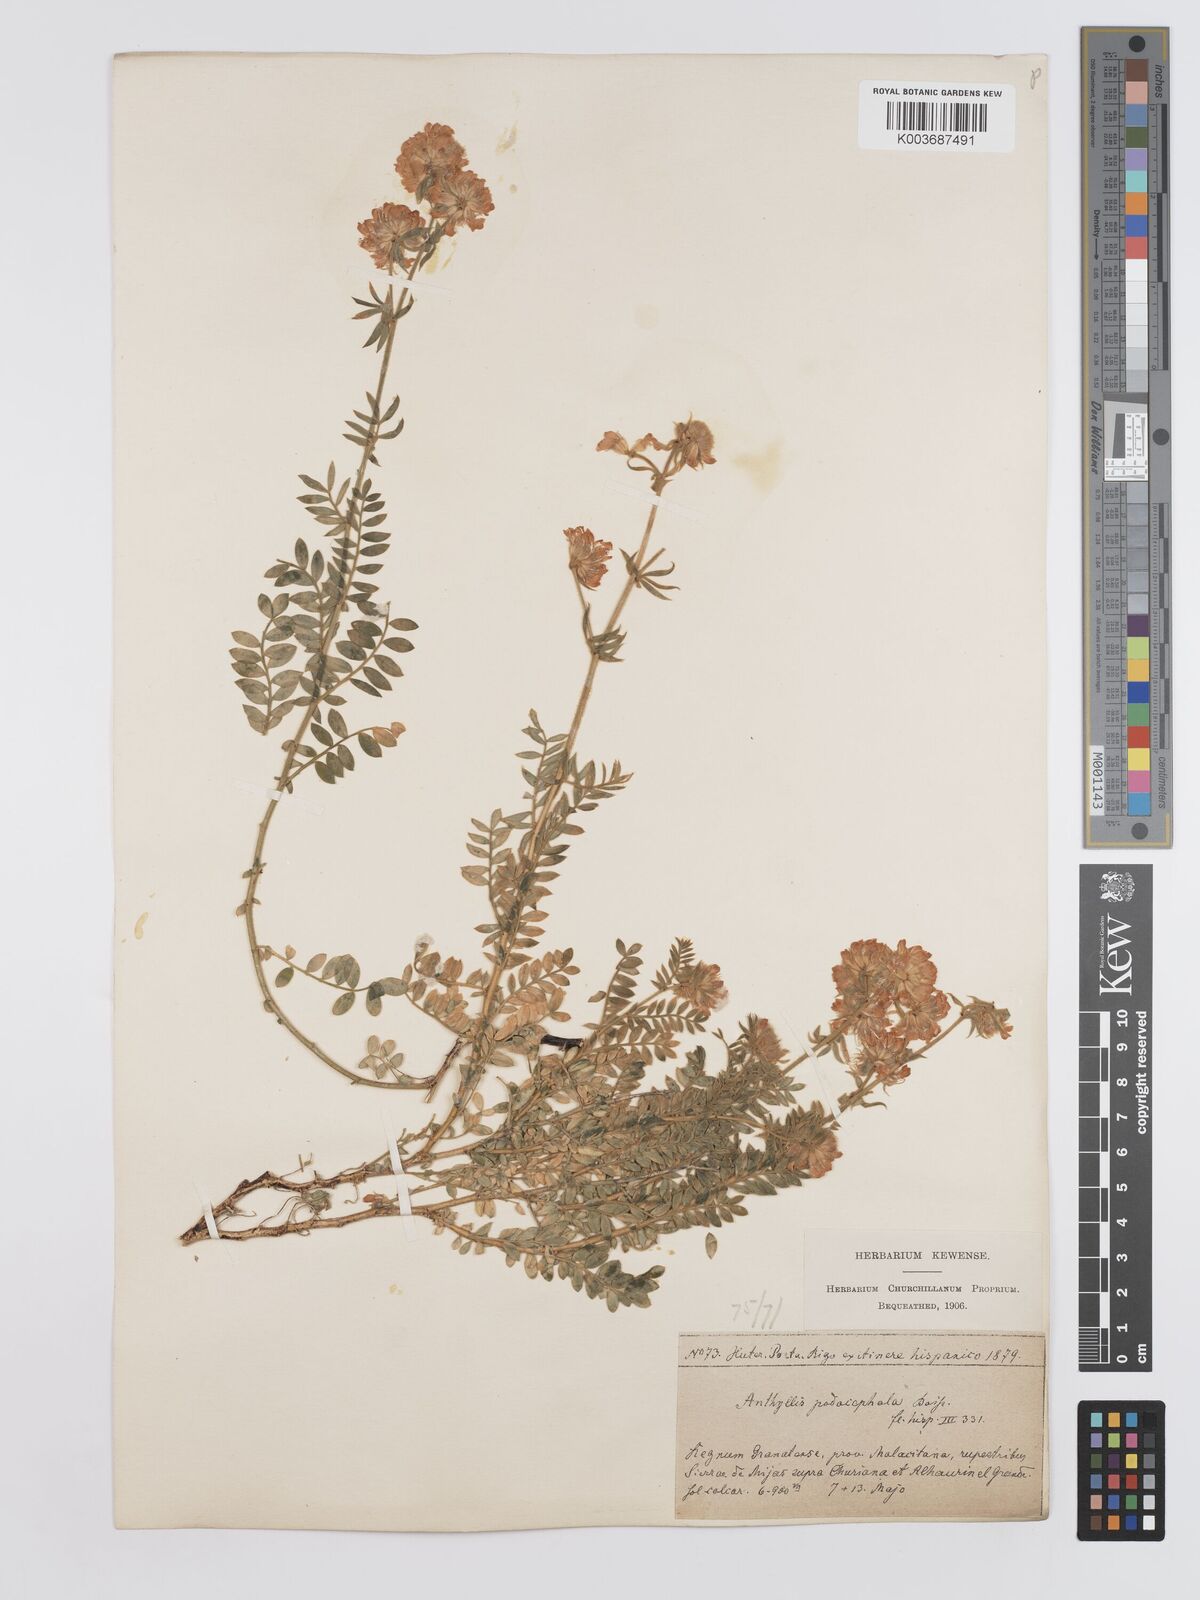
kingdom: Plantae
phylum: Tracheophyta
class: Magnoliopsida
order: Fabales
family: Fabaceae
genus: Anthyllis
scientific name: Anthyllis polycephala
